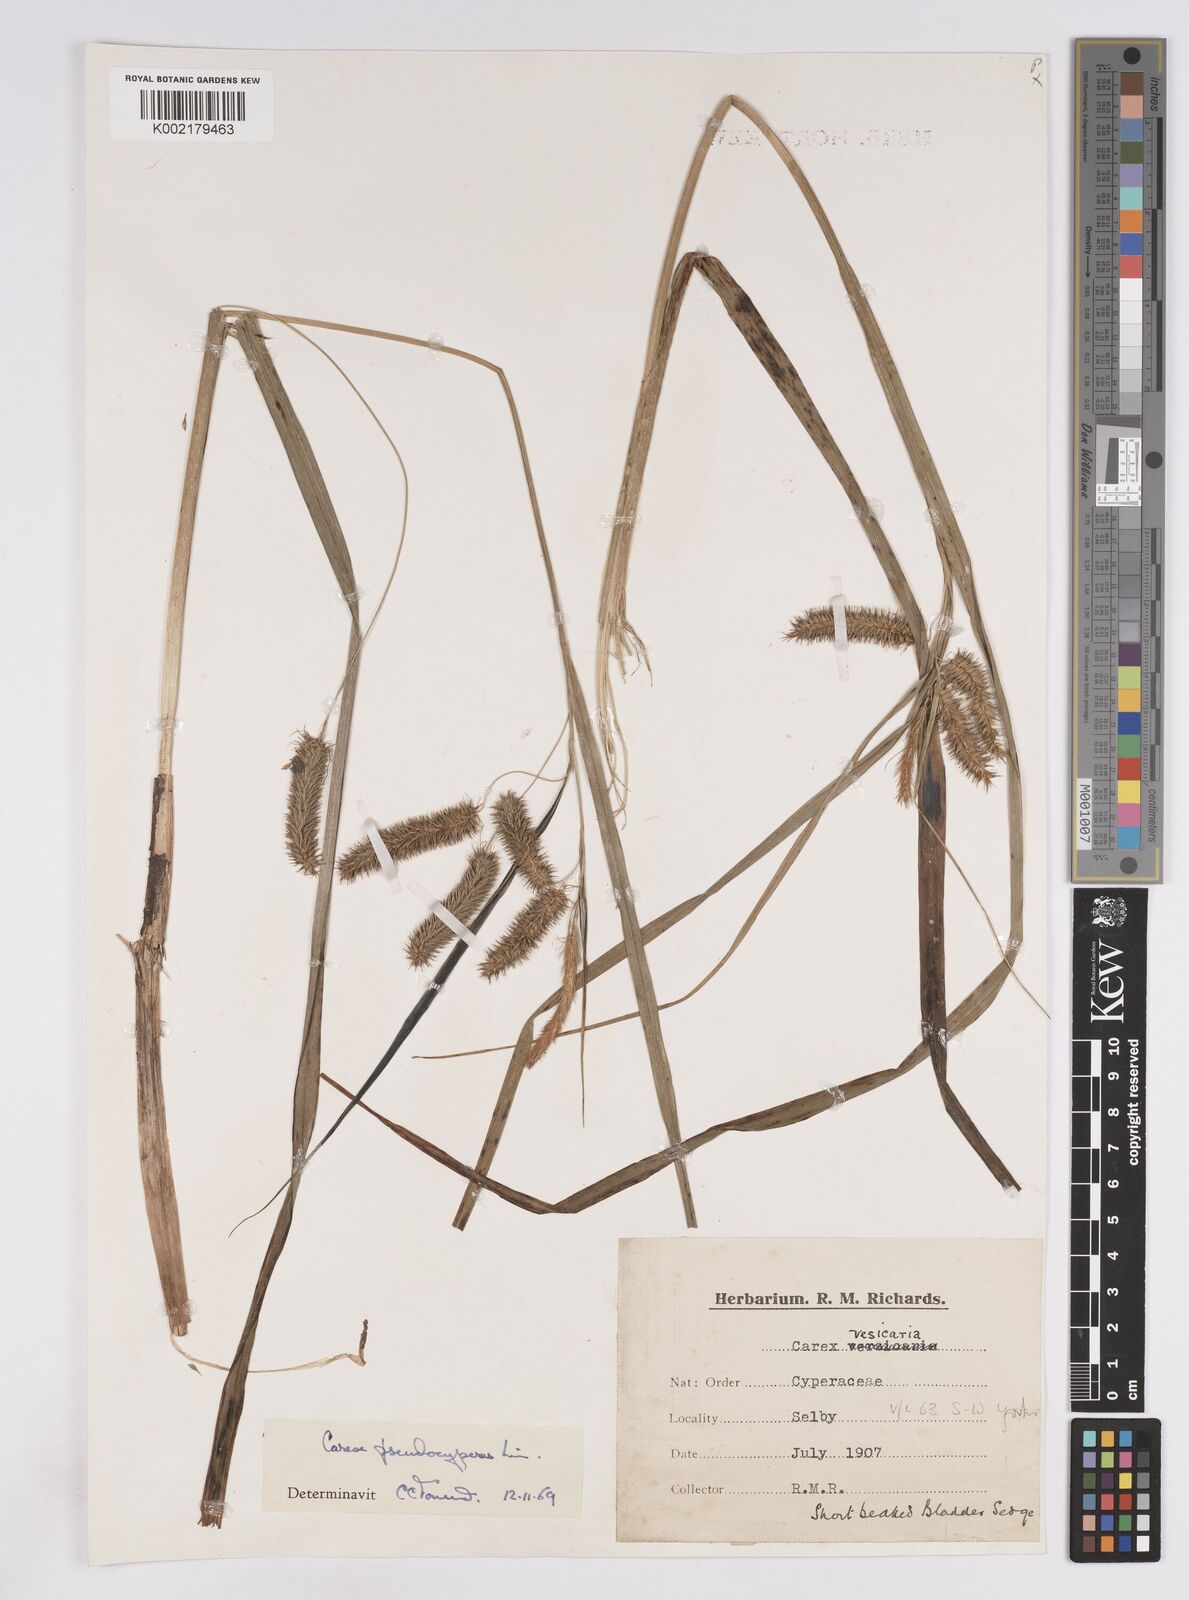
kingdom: Plantae
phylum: Tracheophyta
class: Liliopsida
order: Poales
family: Cyperaceae
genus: Carex
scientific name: Carex pseudocyperus
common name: Cyperus sedge
